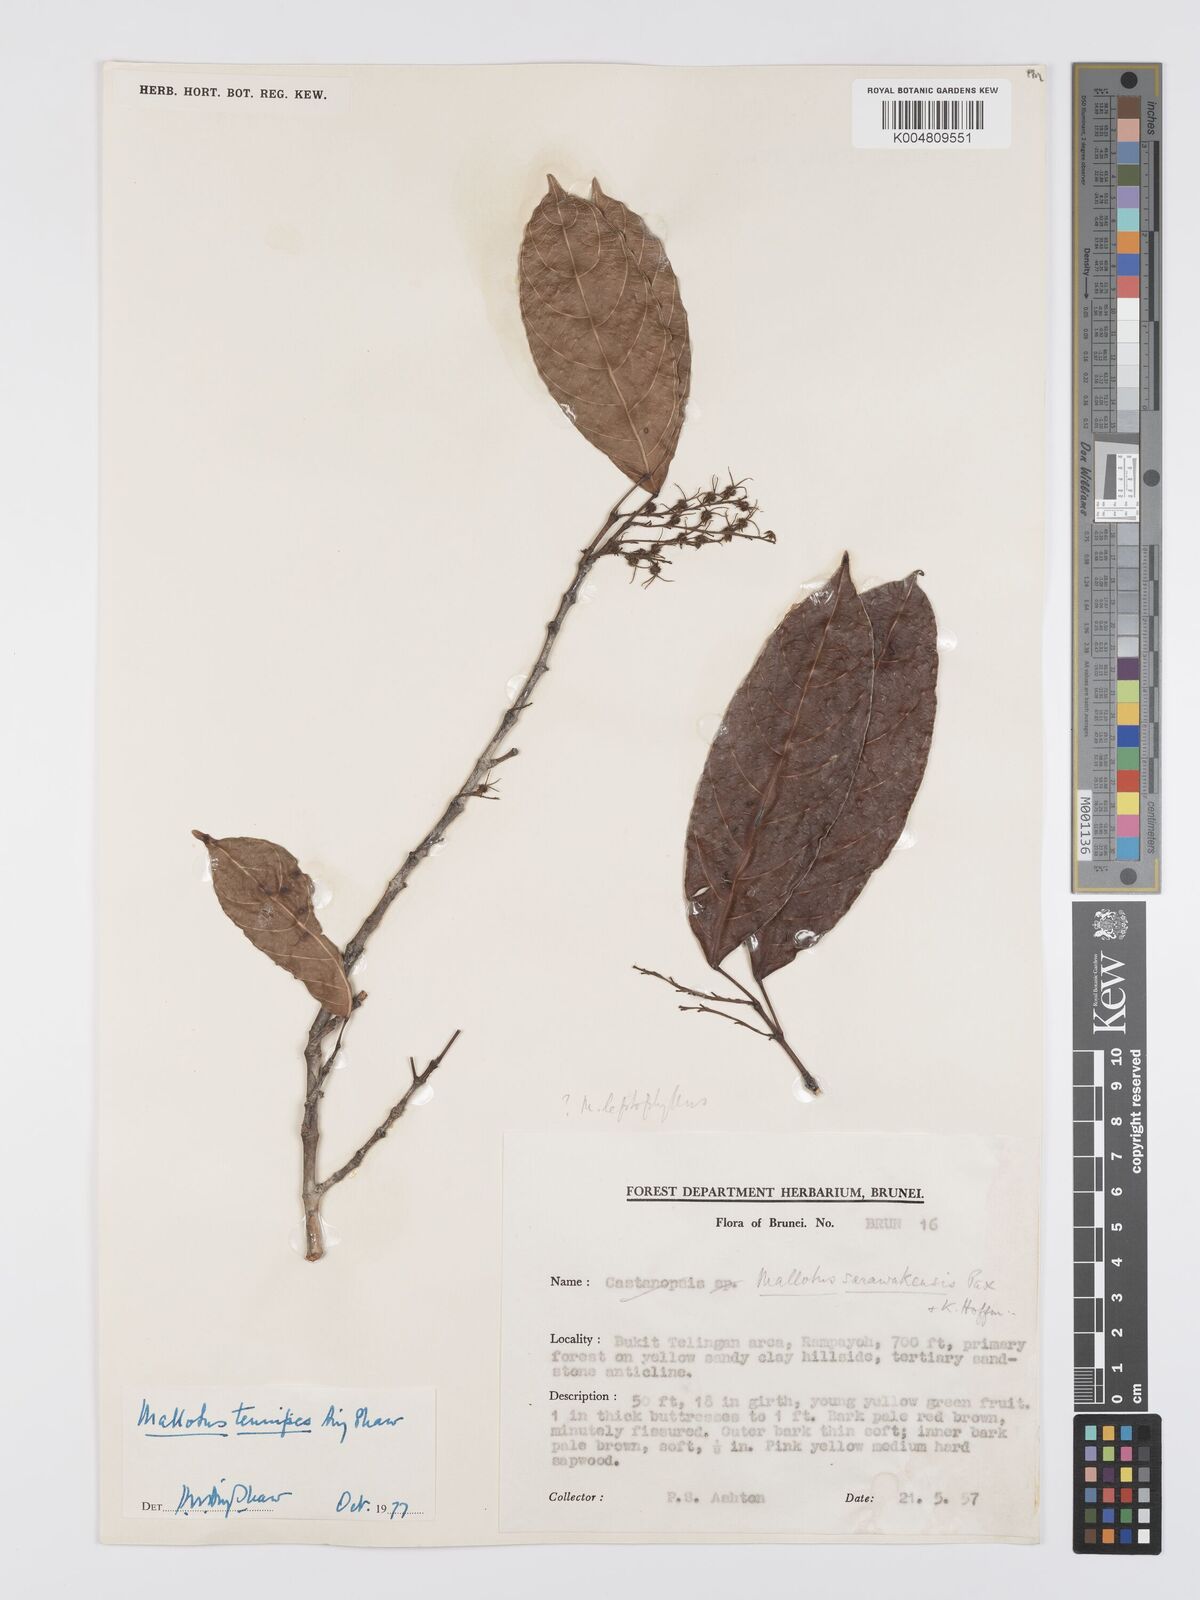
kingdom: Plantae
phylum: Tracheophyta
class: Magnoliopsida
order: Malpighiales
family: Euphorbiaceae
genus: Hancea
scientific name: Hancea penangensis
